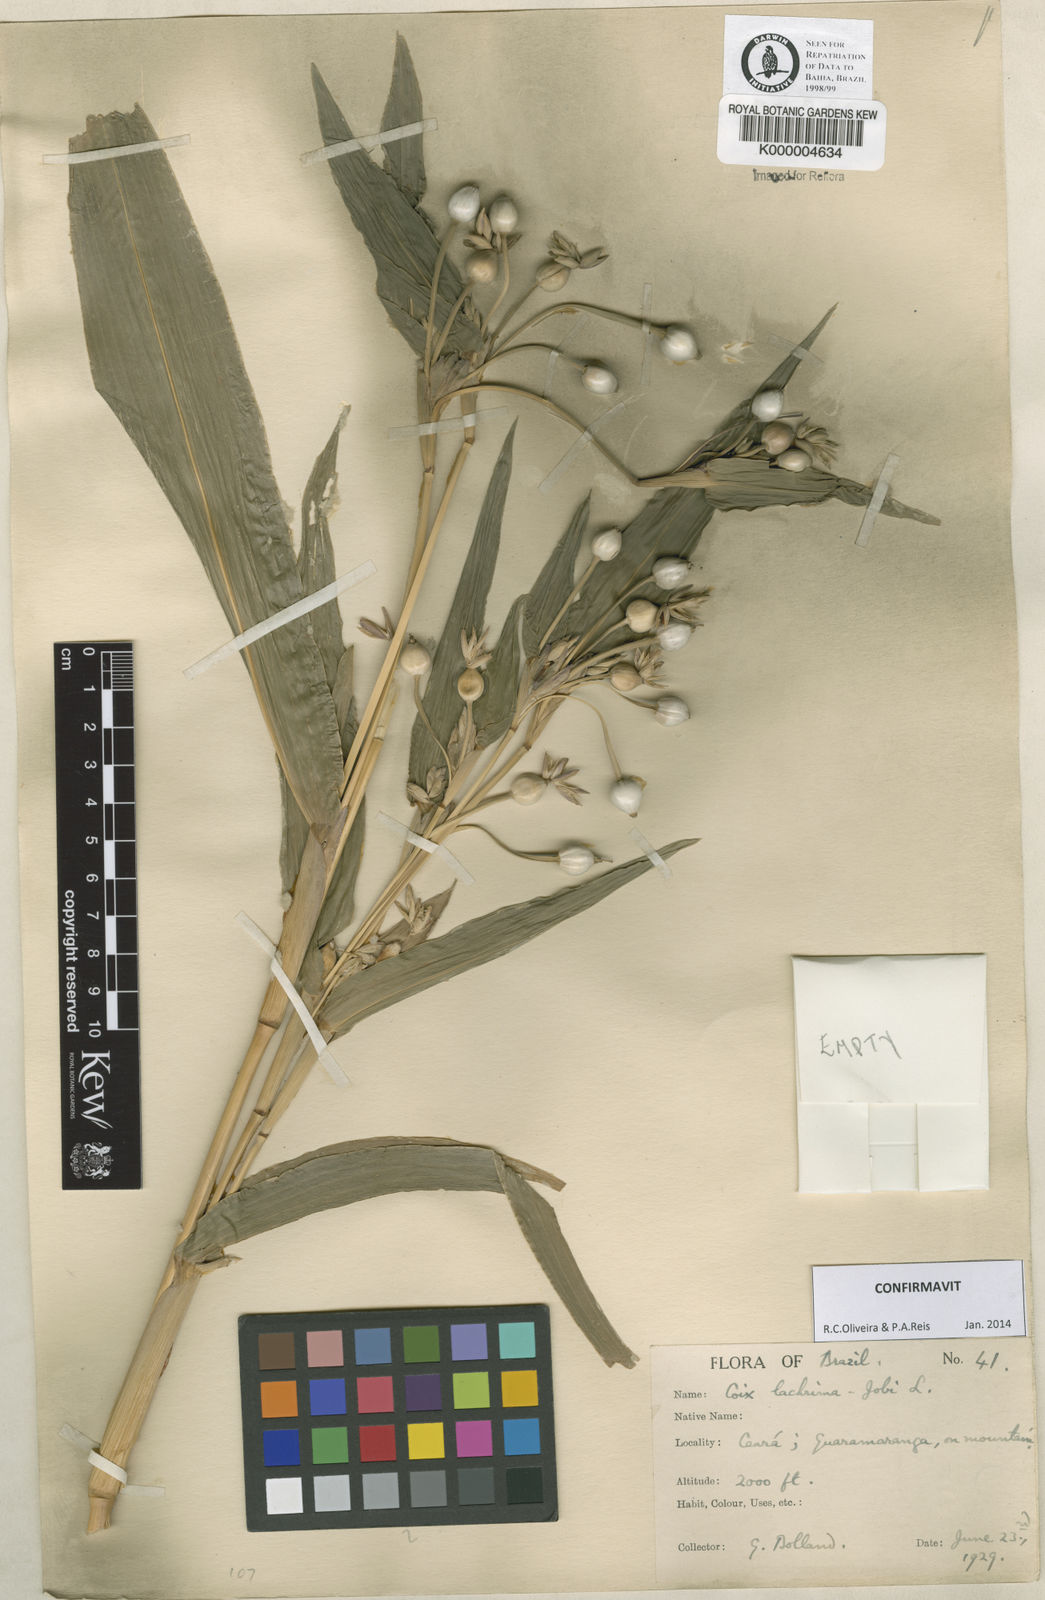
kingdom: Plantae
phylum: Tracheophyta
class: Liliopsida
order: Poales
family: Poaceae
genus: Coix
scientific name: Coix lacryma-jobi
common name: Job's tears
